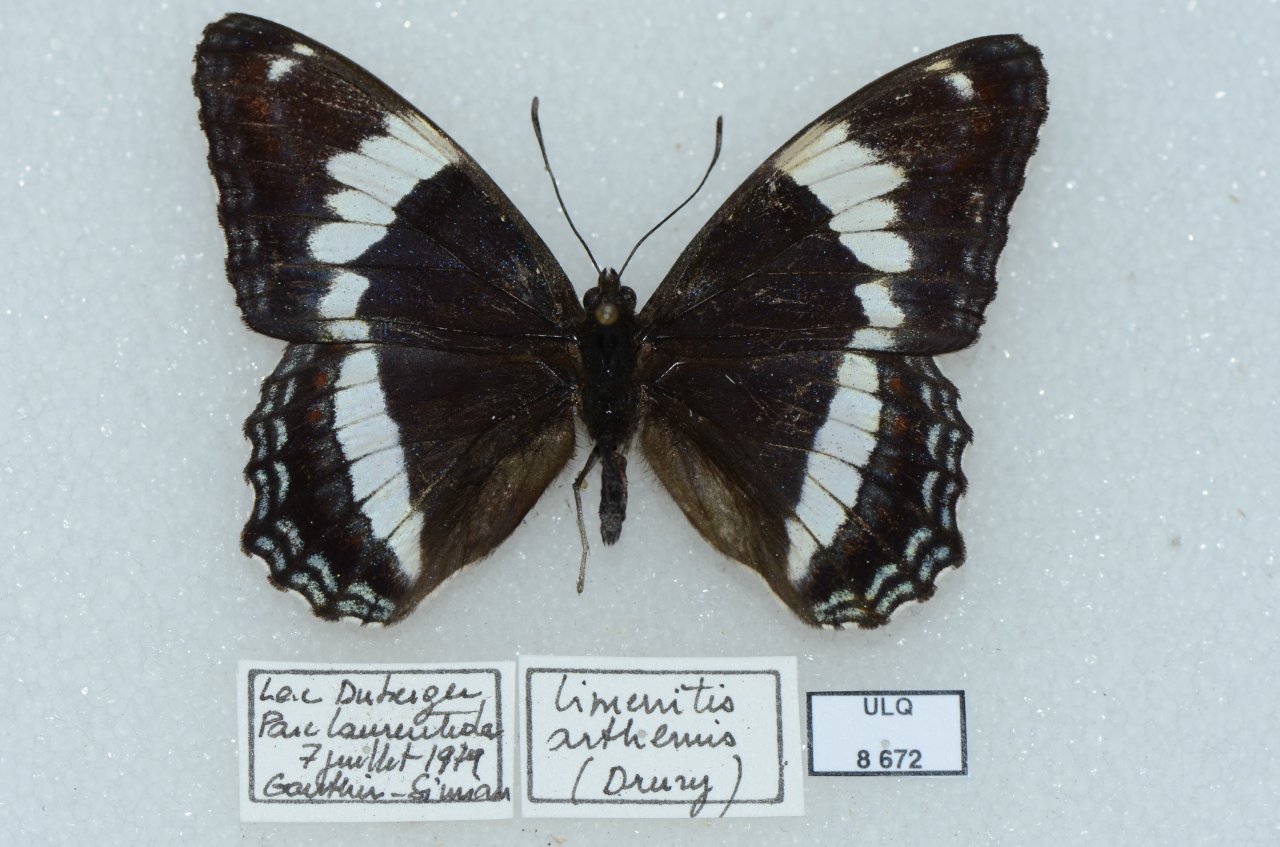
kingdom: Animalia
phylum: Arthropoda
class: Insecta
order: Lepidoptera
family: Nymphalidae
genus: Limenitis
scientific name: Limenitis arthemis
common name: Red-spotted Admiral
